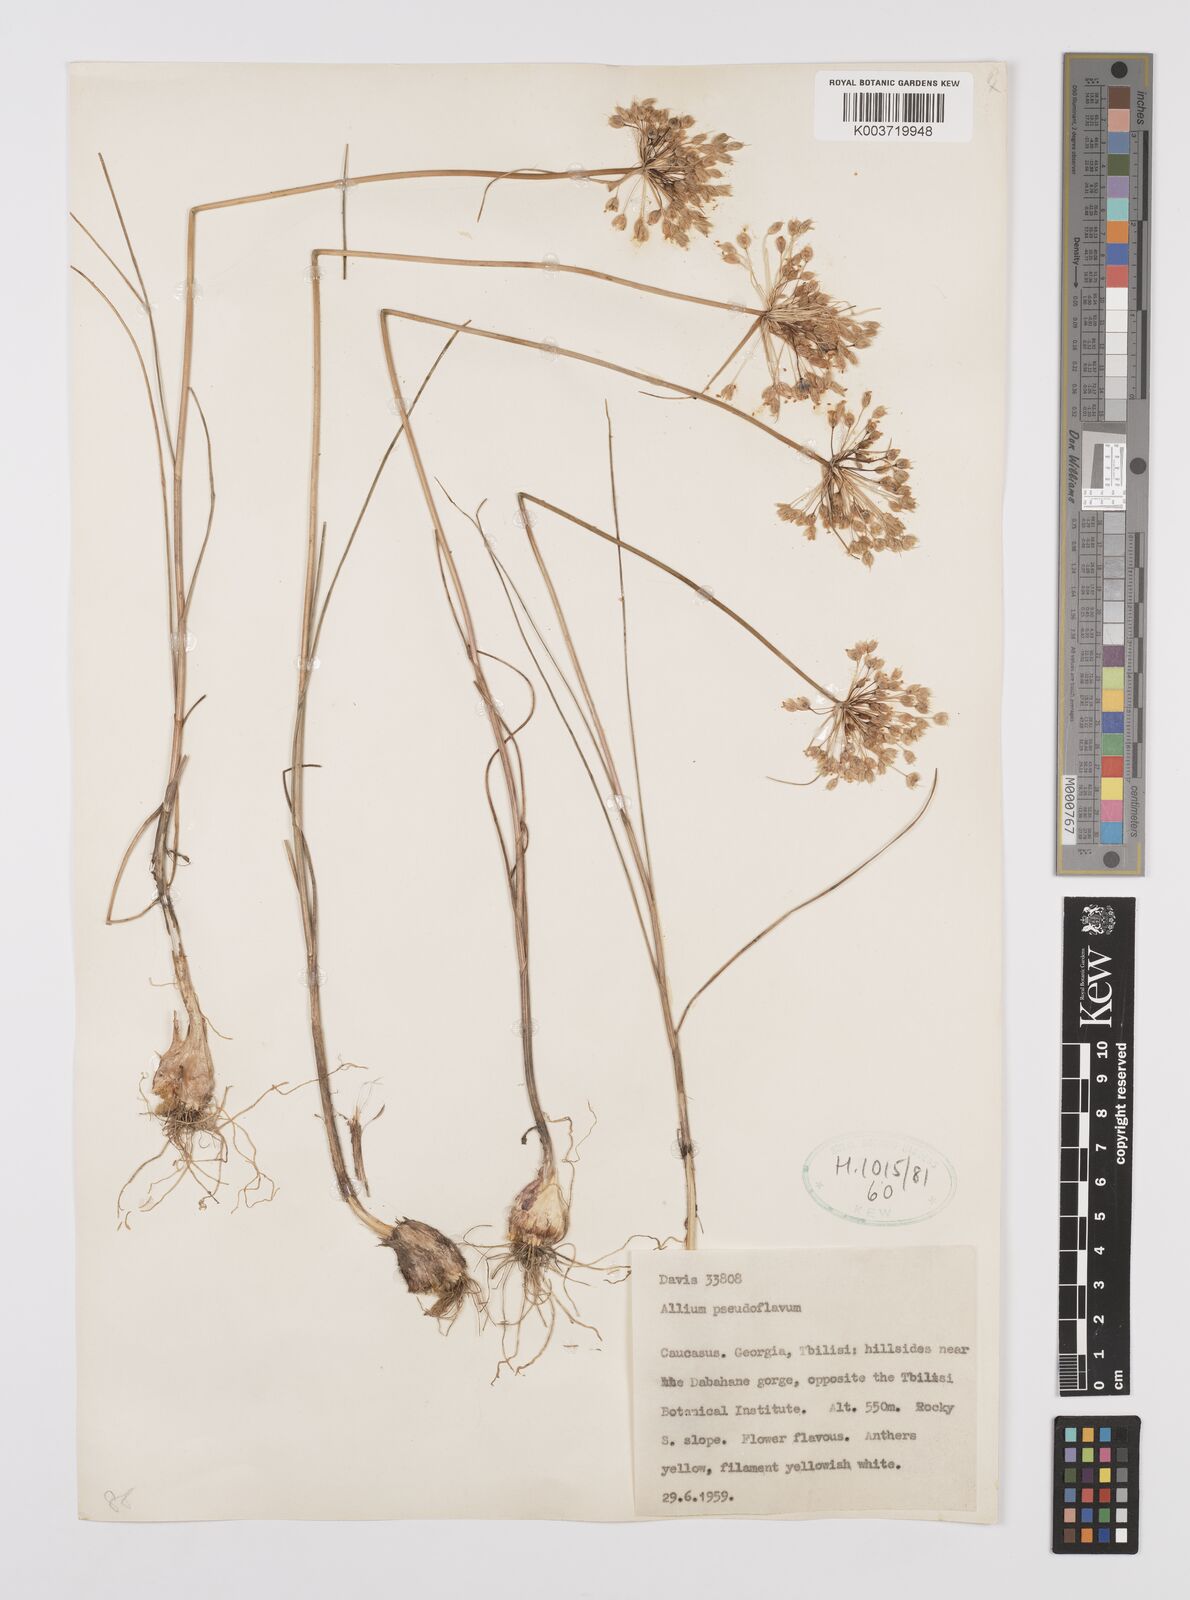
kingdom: Plantae
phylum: Tracheophyta
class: Liliopsida
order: Asparagales
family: Amaryllidaceae
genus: Allium
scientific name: Allium pseudoflavum
